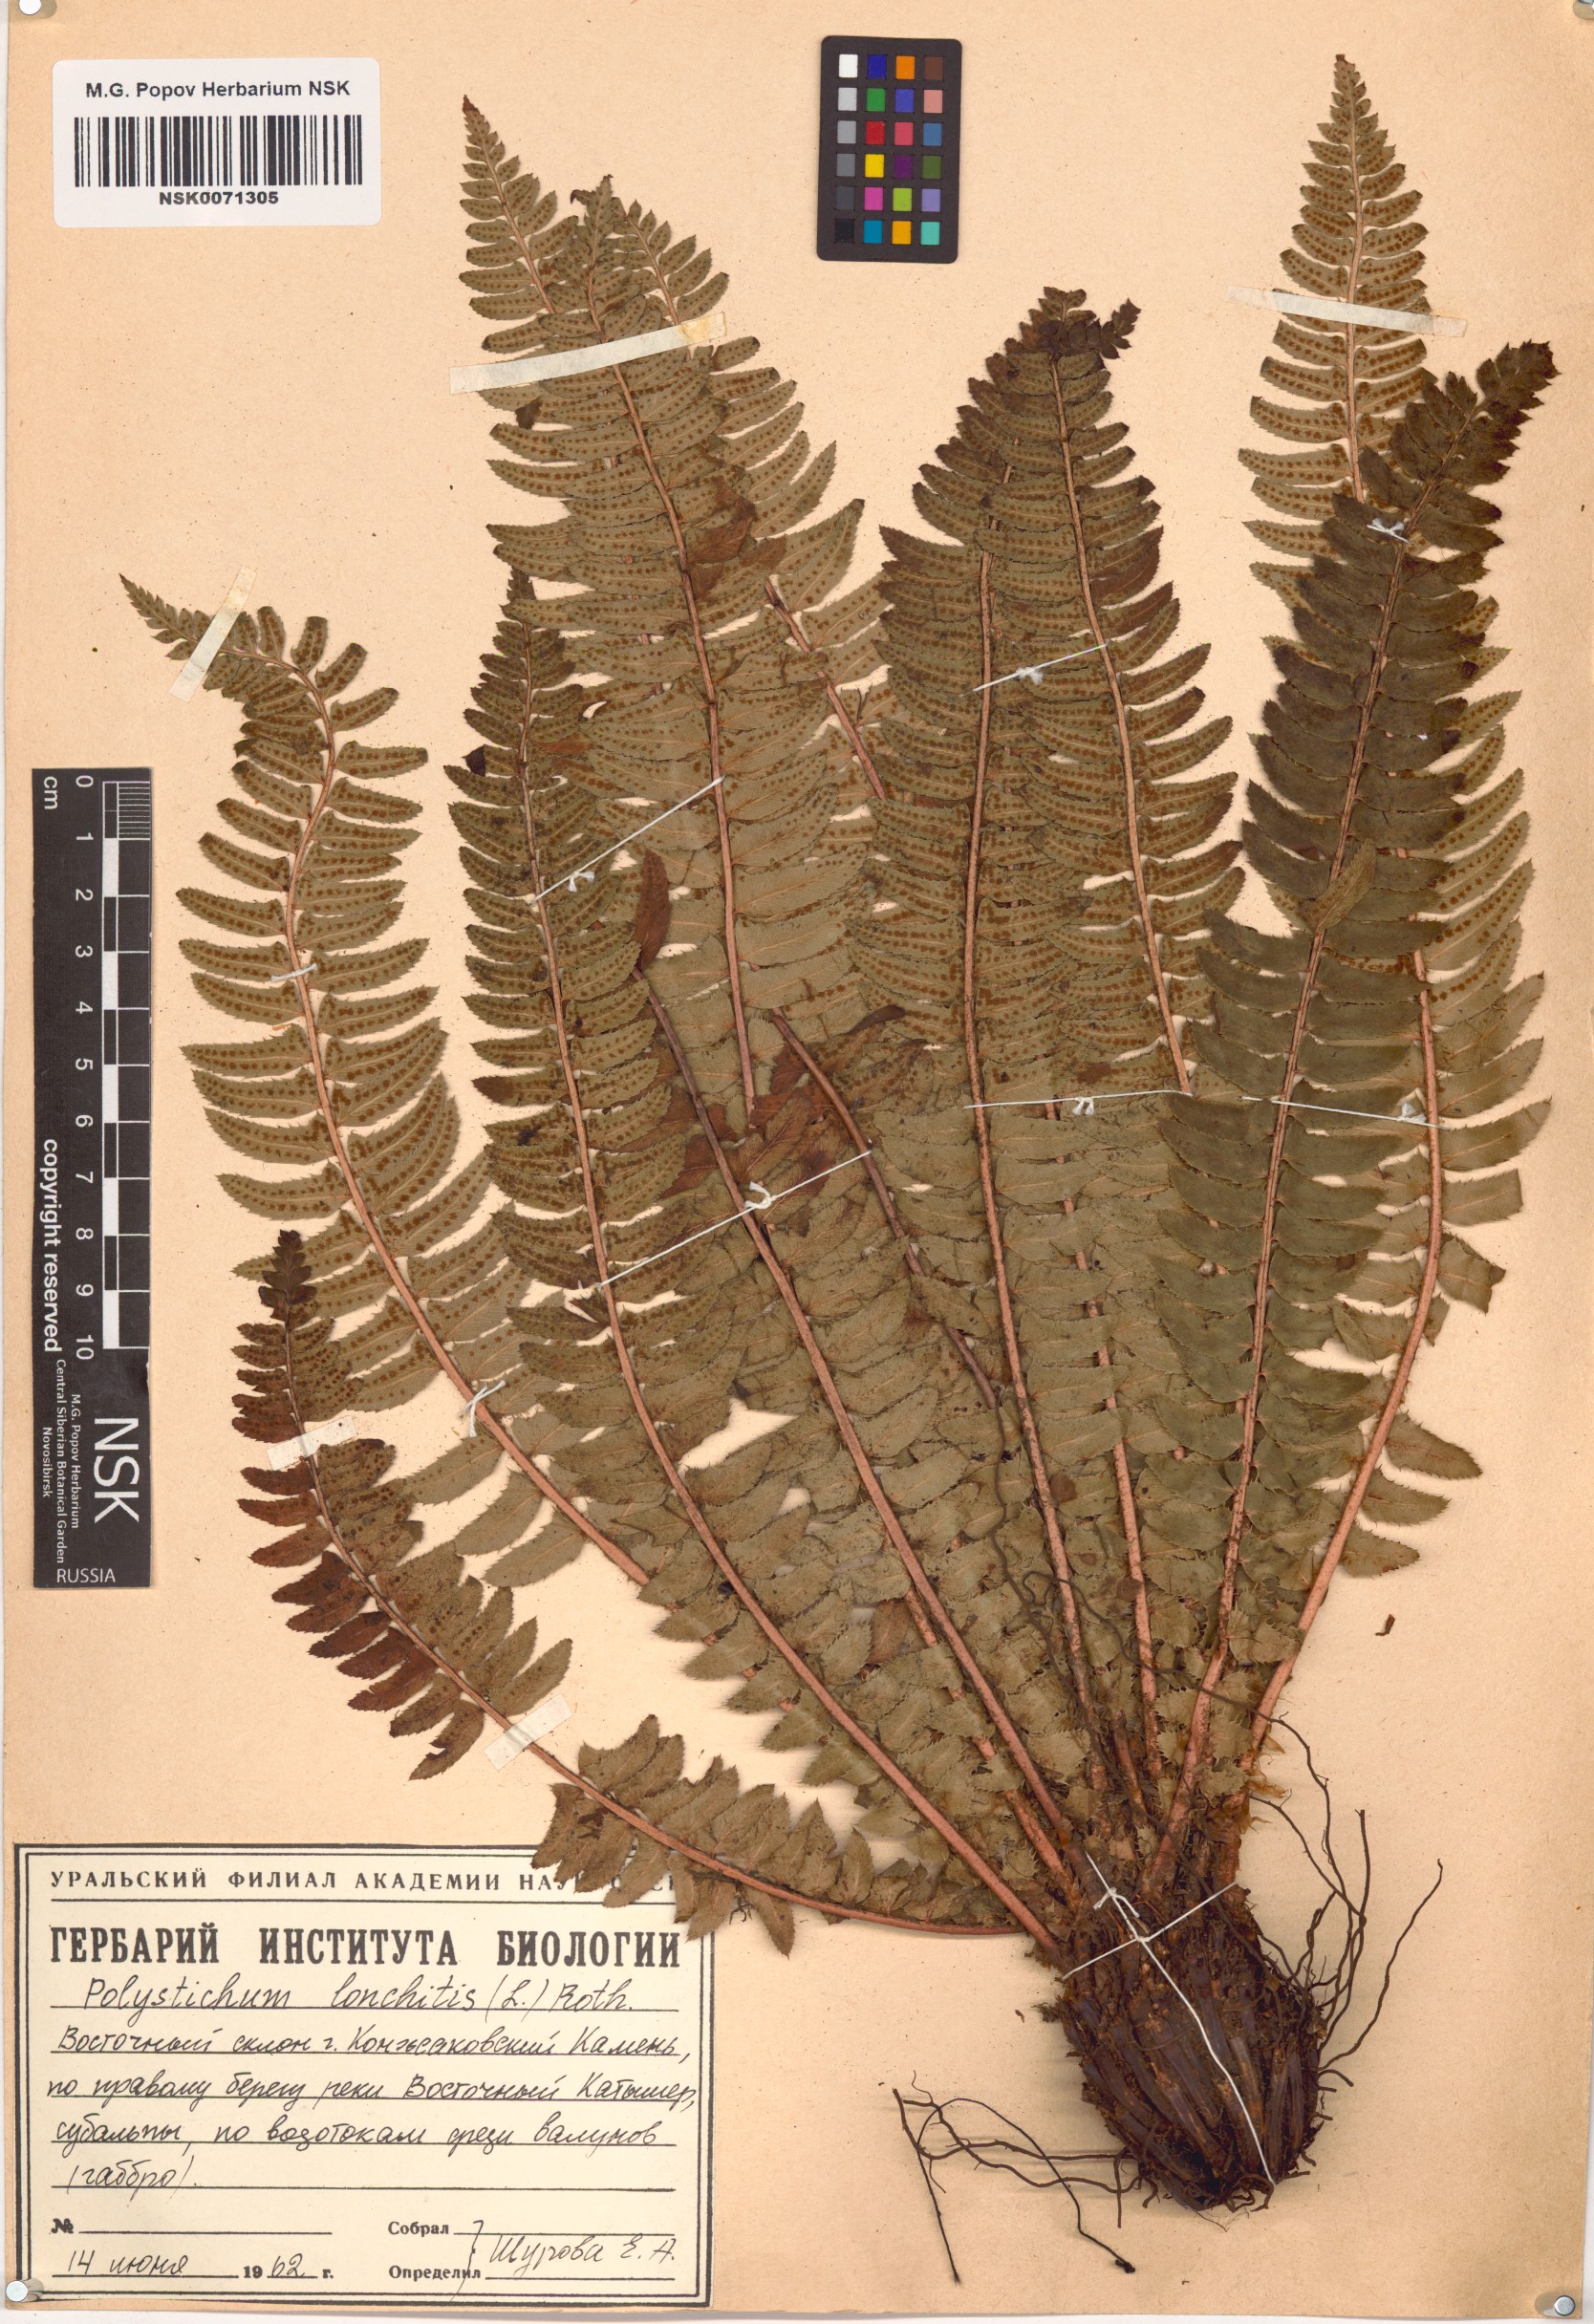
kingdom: Plantae
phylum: Tracheophyta
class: Polypodiopsida
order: Polypodiales
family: Dryopteridaceae
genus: Polystichum
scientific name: Polystichum lonchitis
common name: Holly fern
